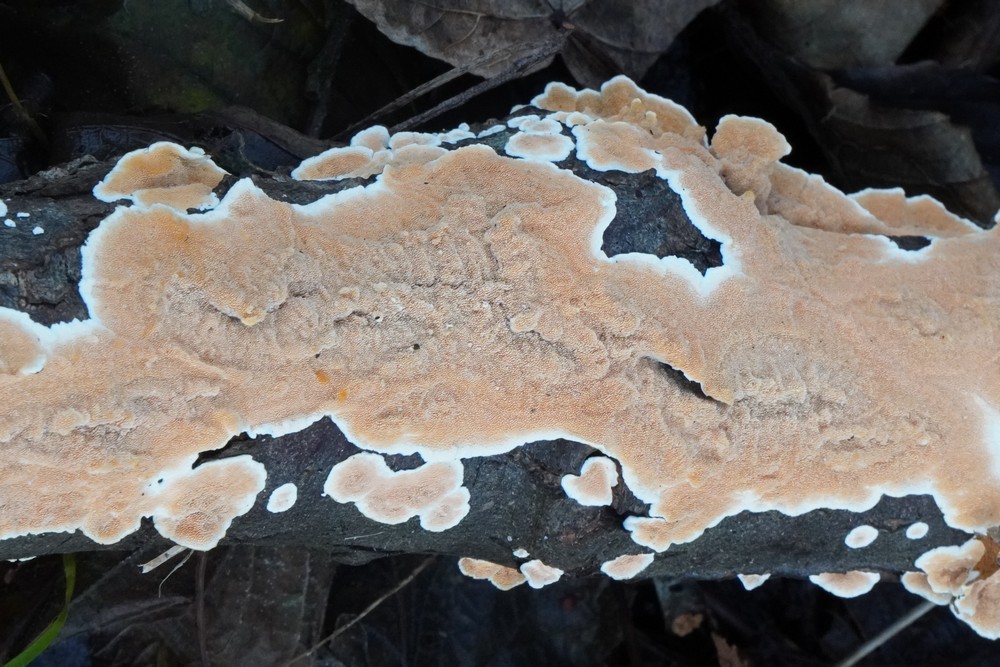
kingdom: Fungi
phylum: Basidiomycota
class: Agaricomycetes
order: Polyporales
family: Steccherinaceae
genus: Steccherinum
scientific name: Steccherinum ochraceum
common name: almindelig skønpig
